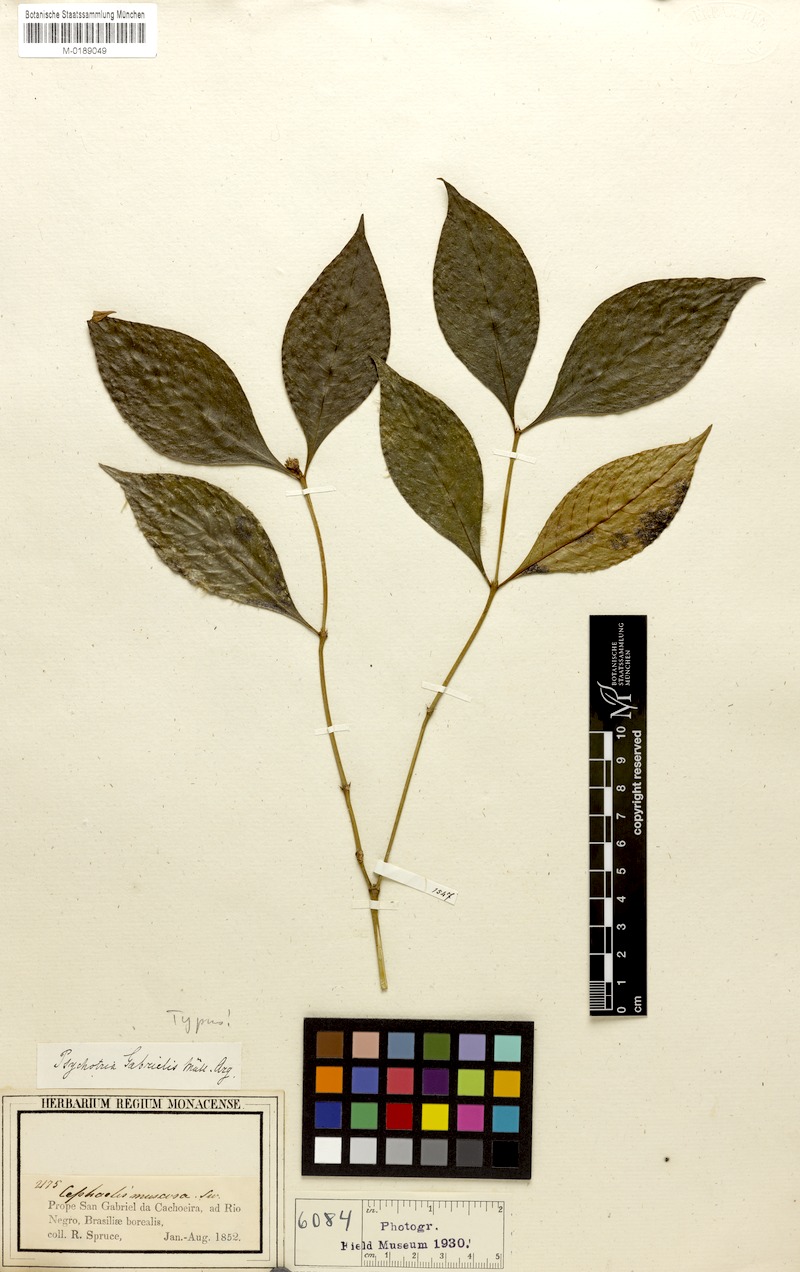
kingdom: Plantae
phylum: Tracheophyta
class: Magnoliopsida
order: Gentianales
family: Rubiaceae
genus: Psychotria
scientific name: Psychotria gabrielis
